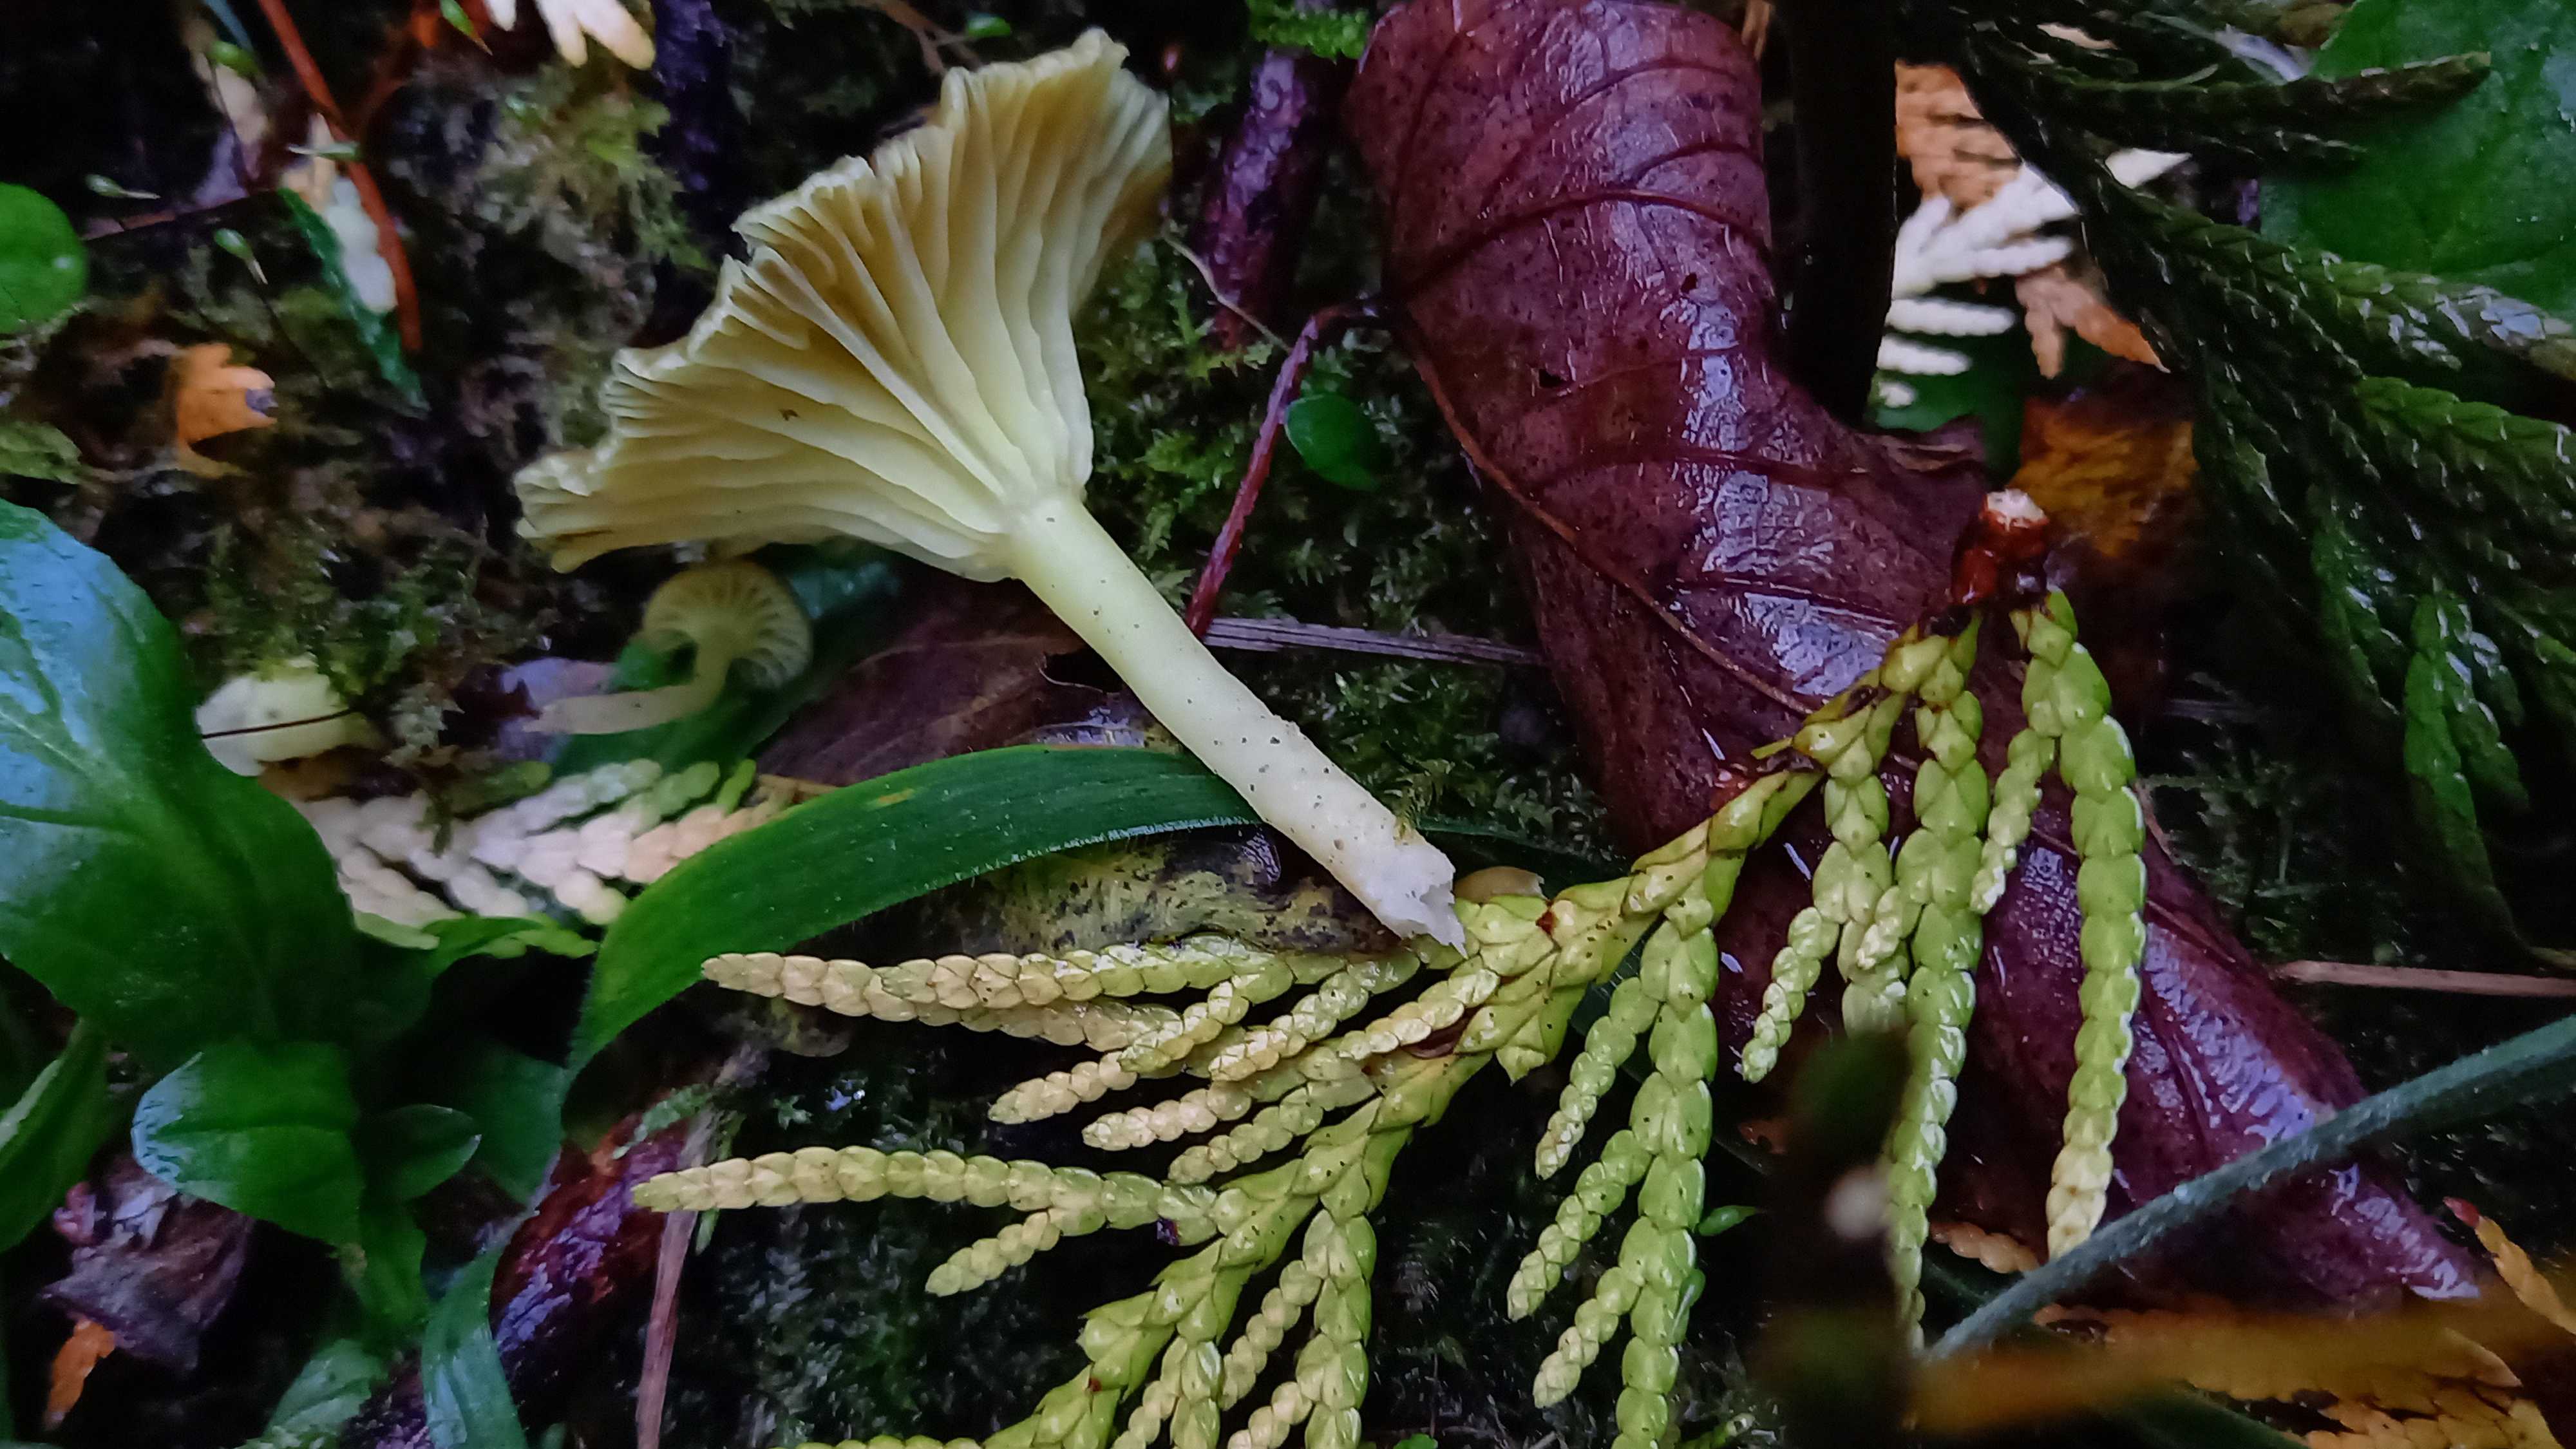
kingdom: Fungi
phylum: Basidiomycota
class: Agaricomycetes
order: Agaricales
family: Hygrophoraceae
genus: Chrysomphalina
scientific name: Chrysomphalina grossula
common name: stød-gyldenblad
